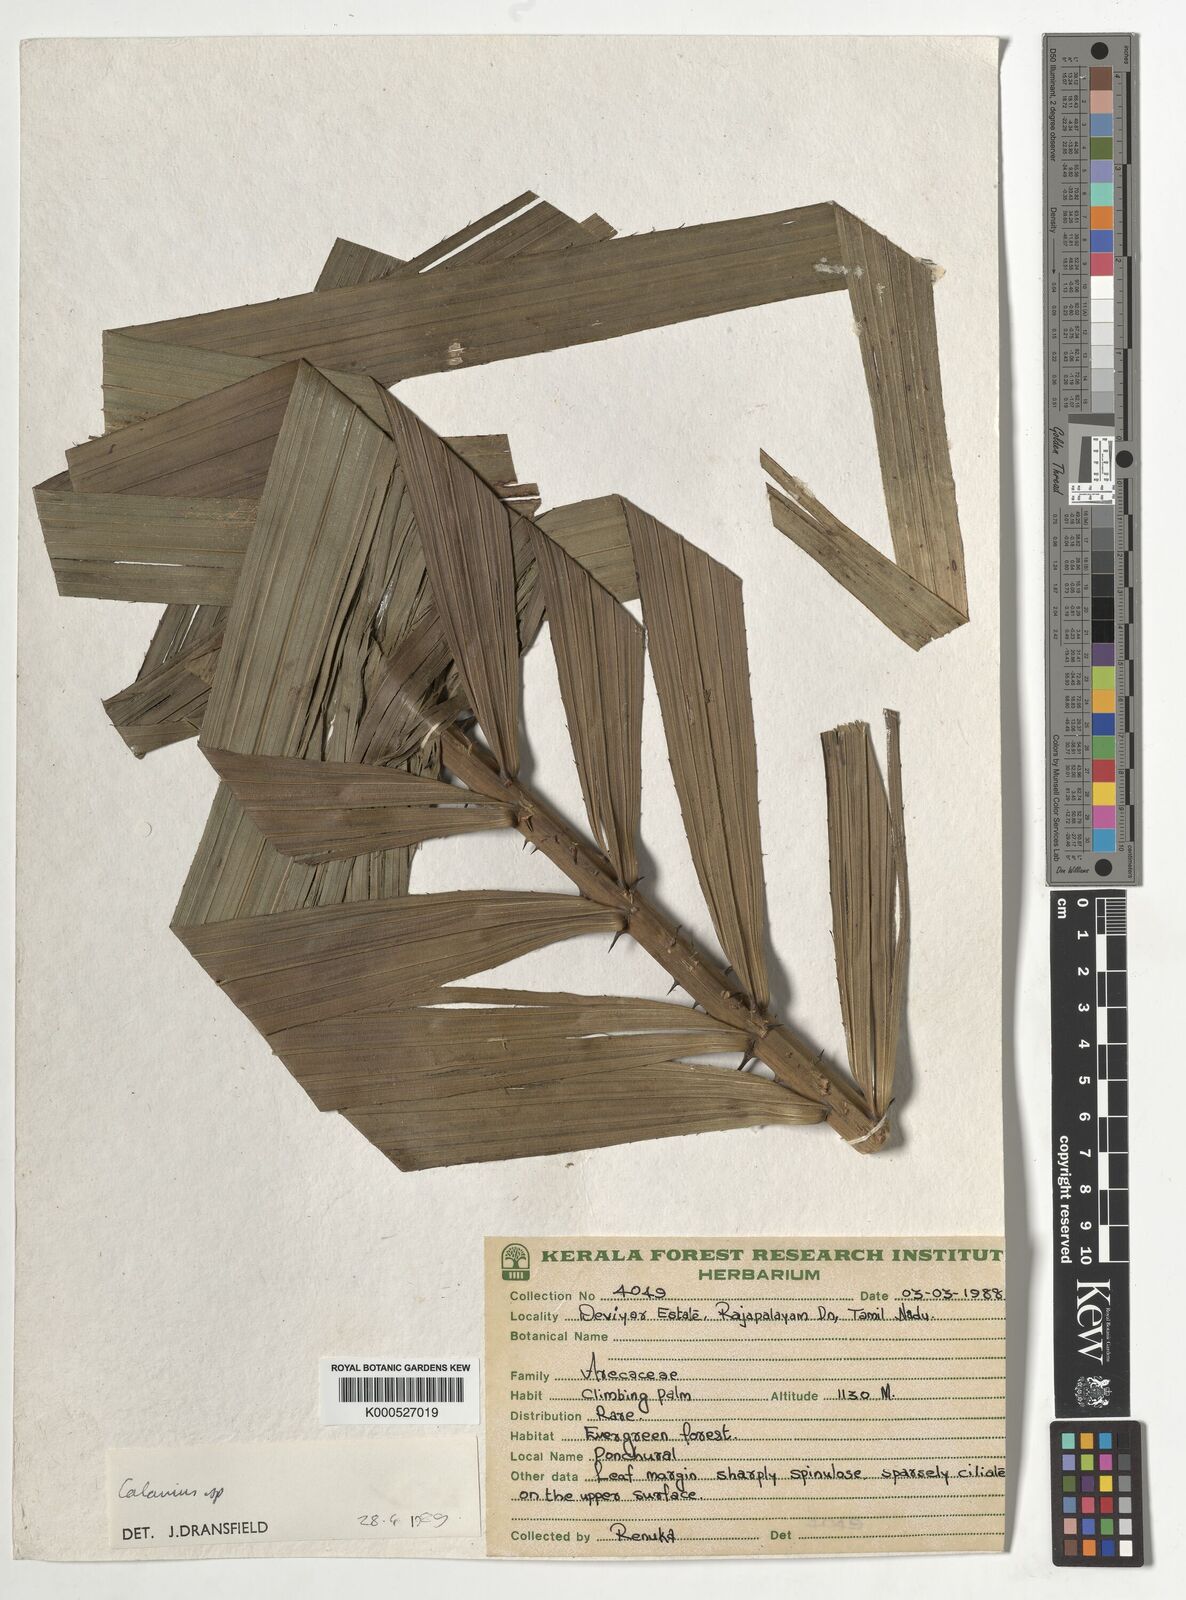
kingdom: Plantae
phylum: Tracheophyta
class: Liliopsida
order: Arecales
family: Arecaceae
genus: Calamus
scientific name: Calamus gamblei
